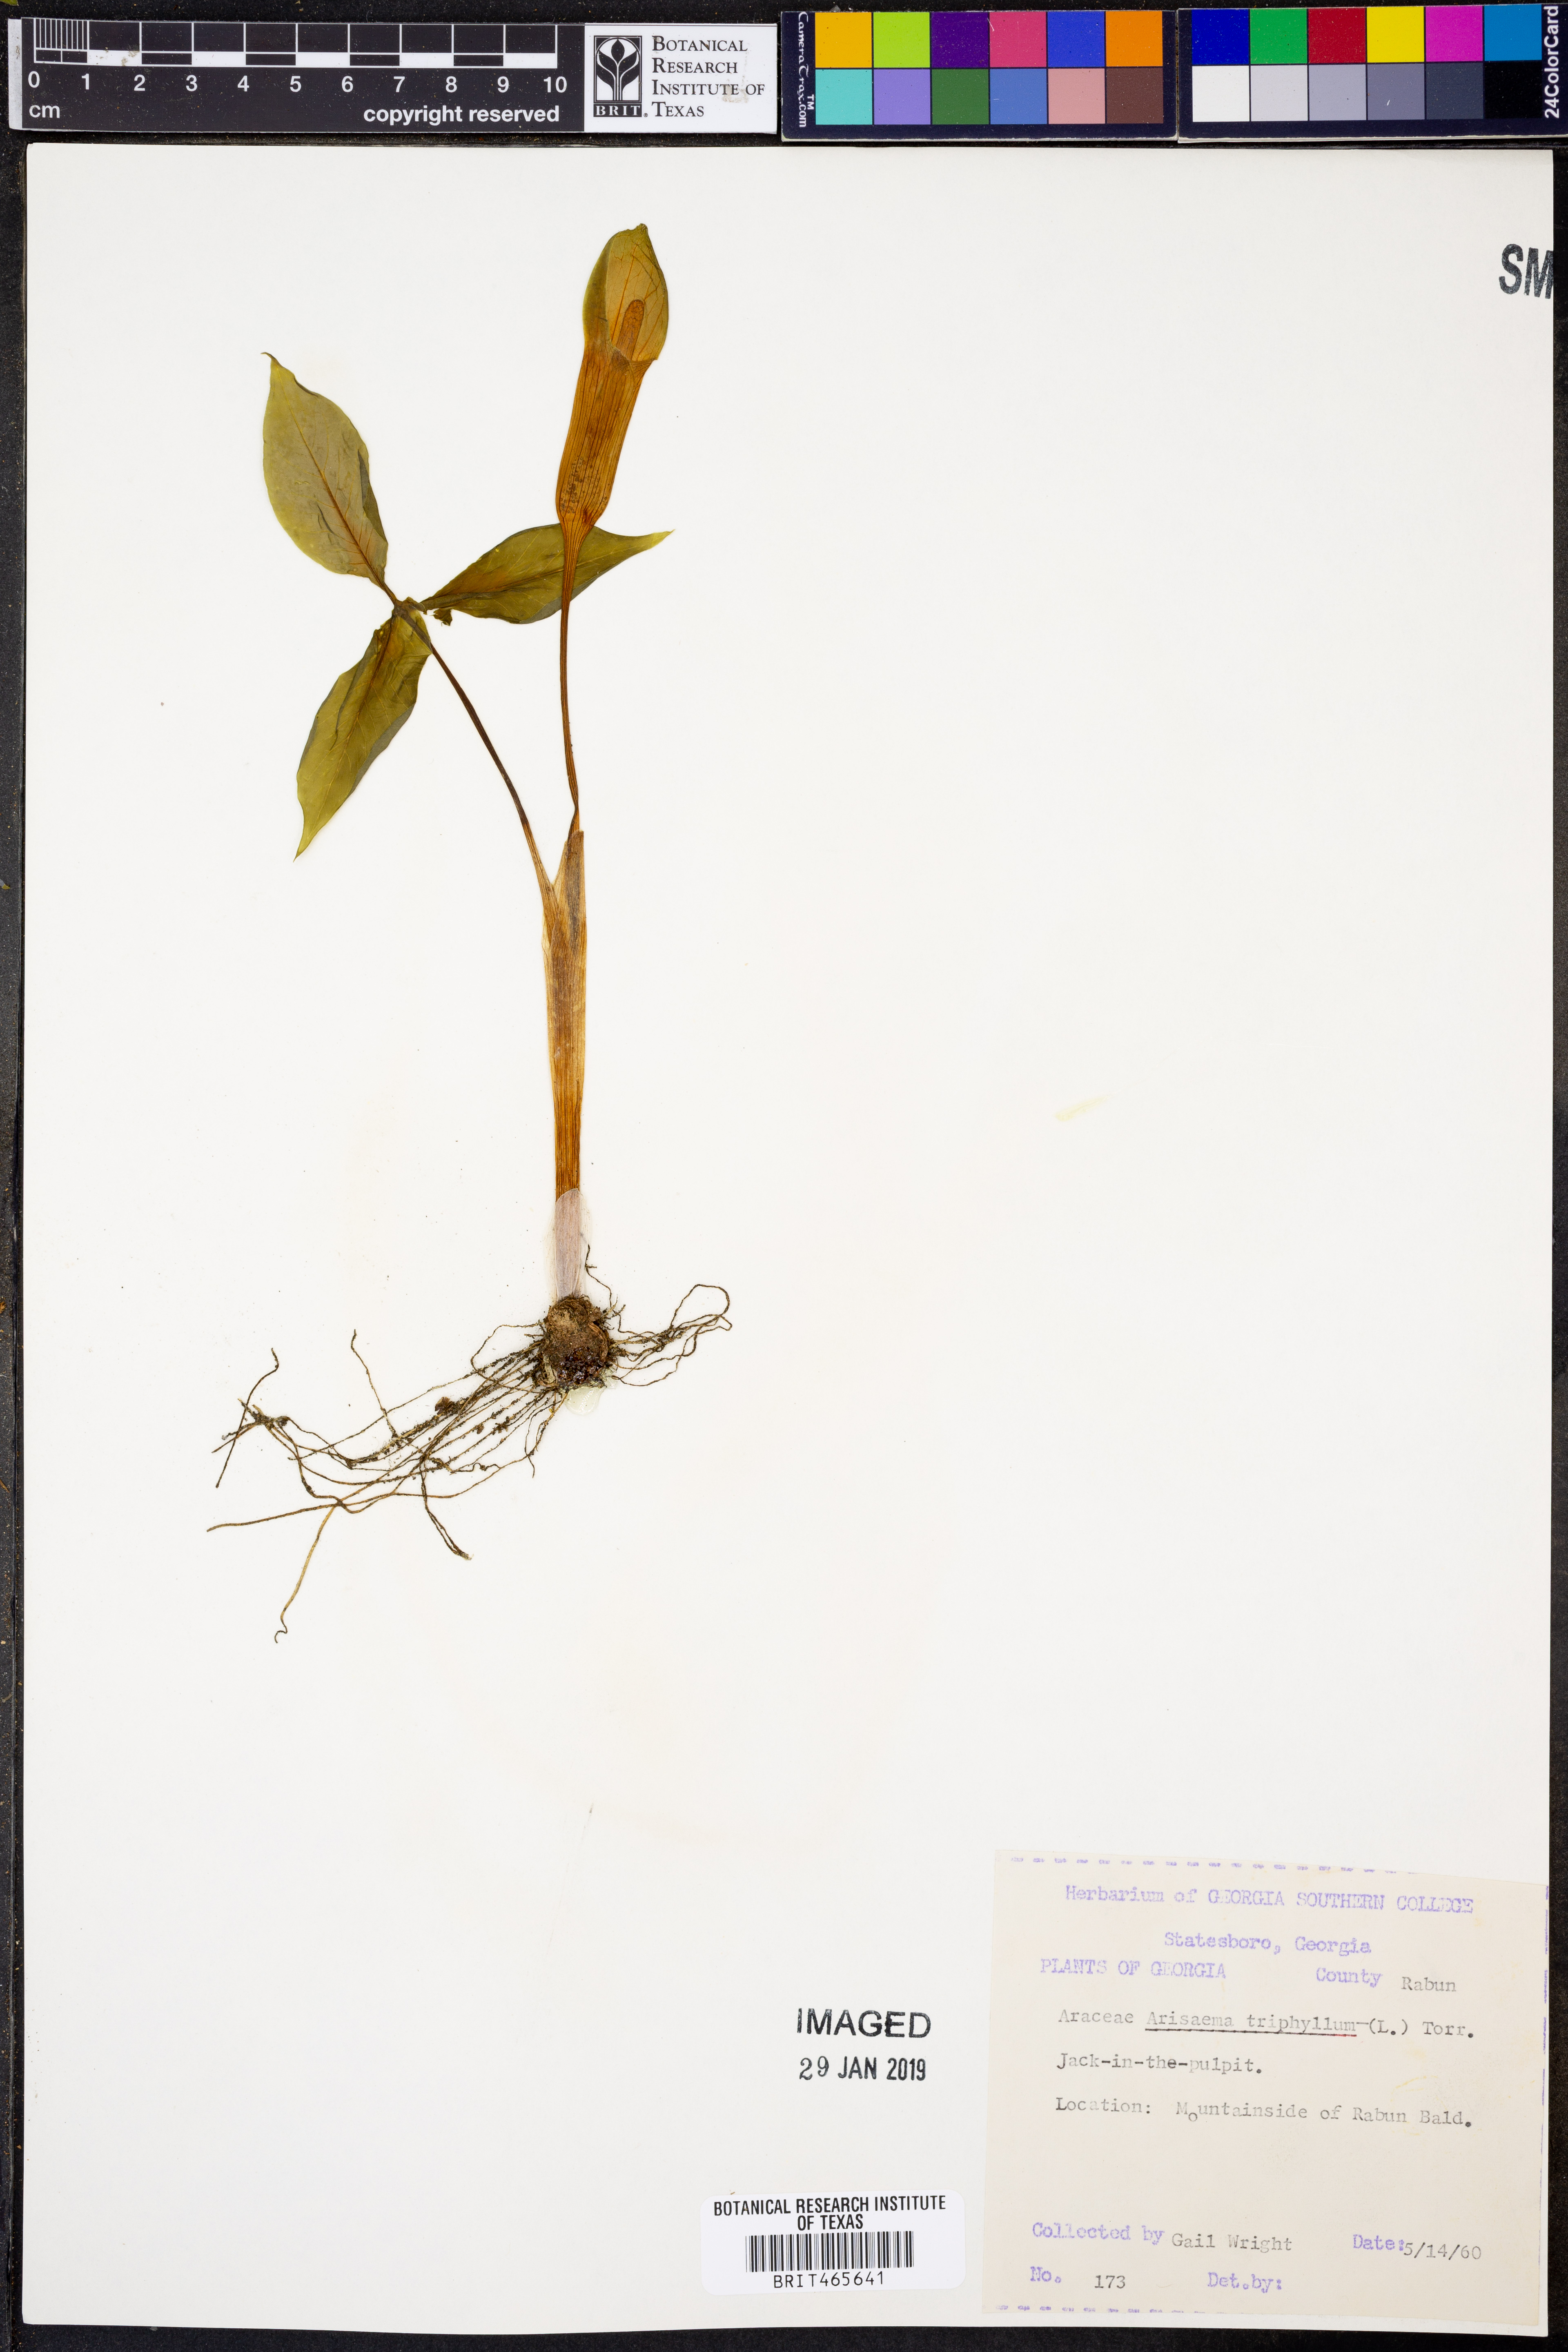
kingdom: Plantae
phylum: Tracheophyta
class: Liliopsida
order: Alismatales
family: Araceae
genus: Arisaema
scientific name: Arisaema triphyllum
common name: Jack-in-the-pulpit
